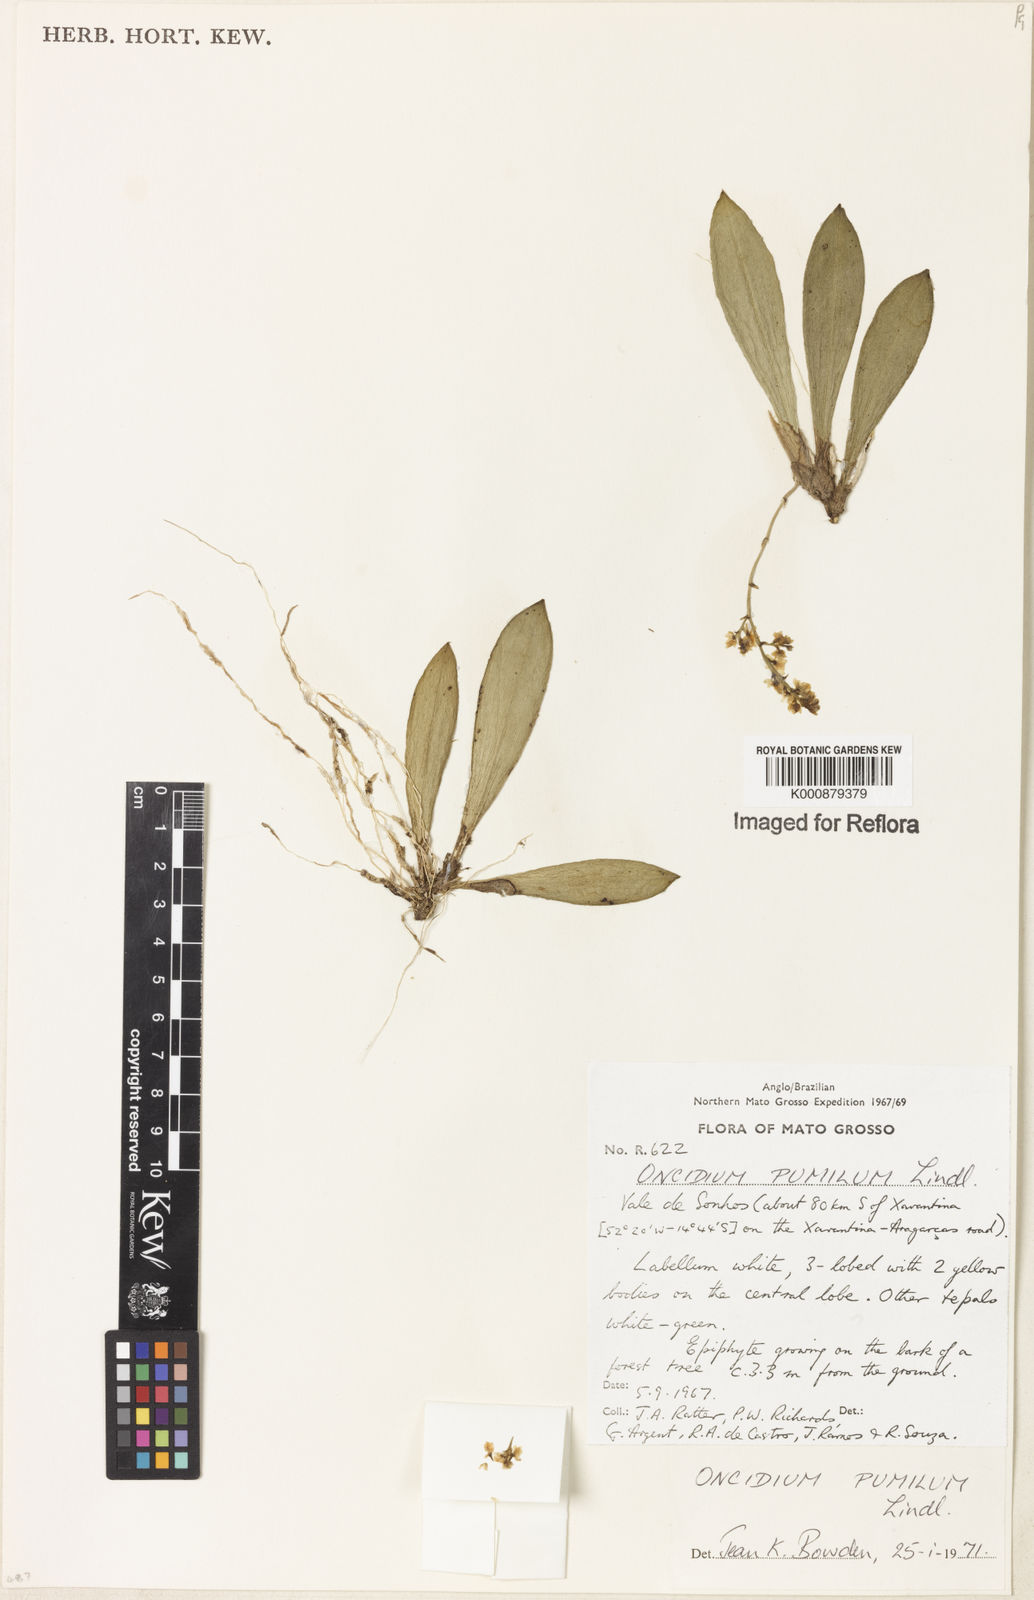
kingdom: Plantae
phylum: Tracheophyta
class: Liliopsida
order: Asparagales
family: Orchidaceae
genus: Trichocentrum
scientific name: Trichocentrum pumilum
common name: Mule-ear orchid
